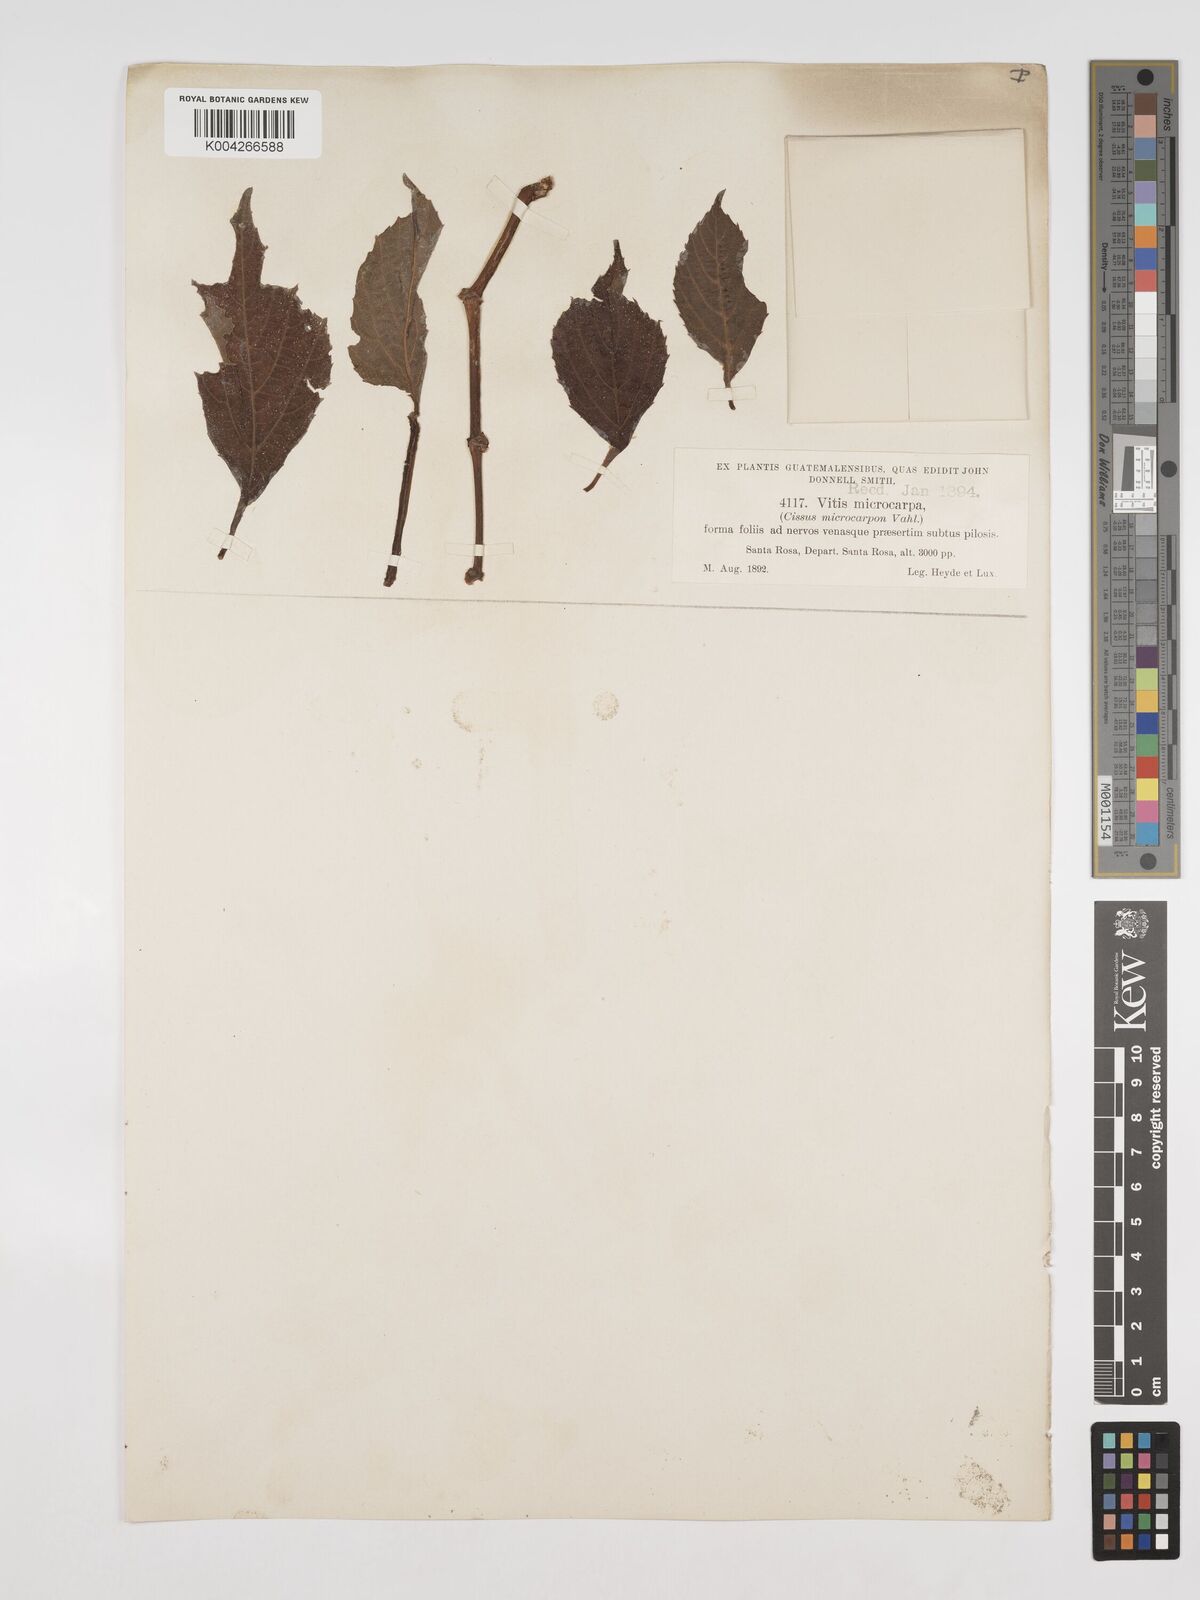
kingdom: Plantae
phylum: Tracheophyta
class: Magnoliopsida
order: Vitales
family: Vitaceae
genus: Cissus
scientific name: Cissus microcarpa
